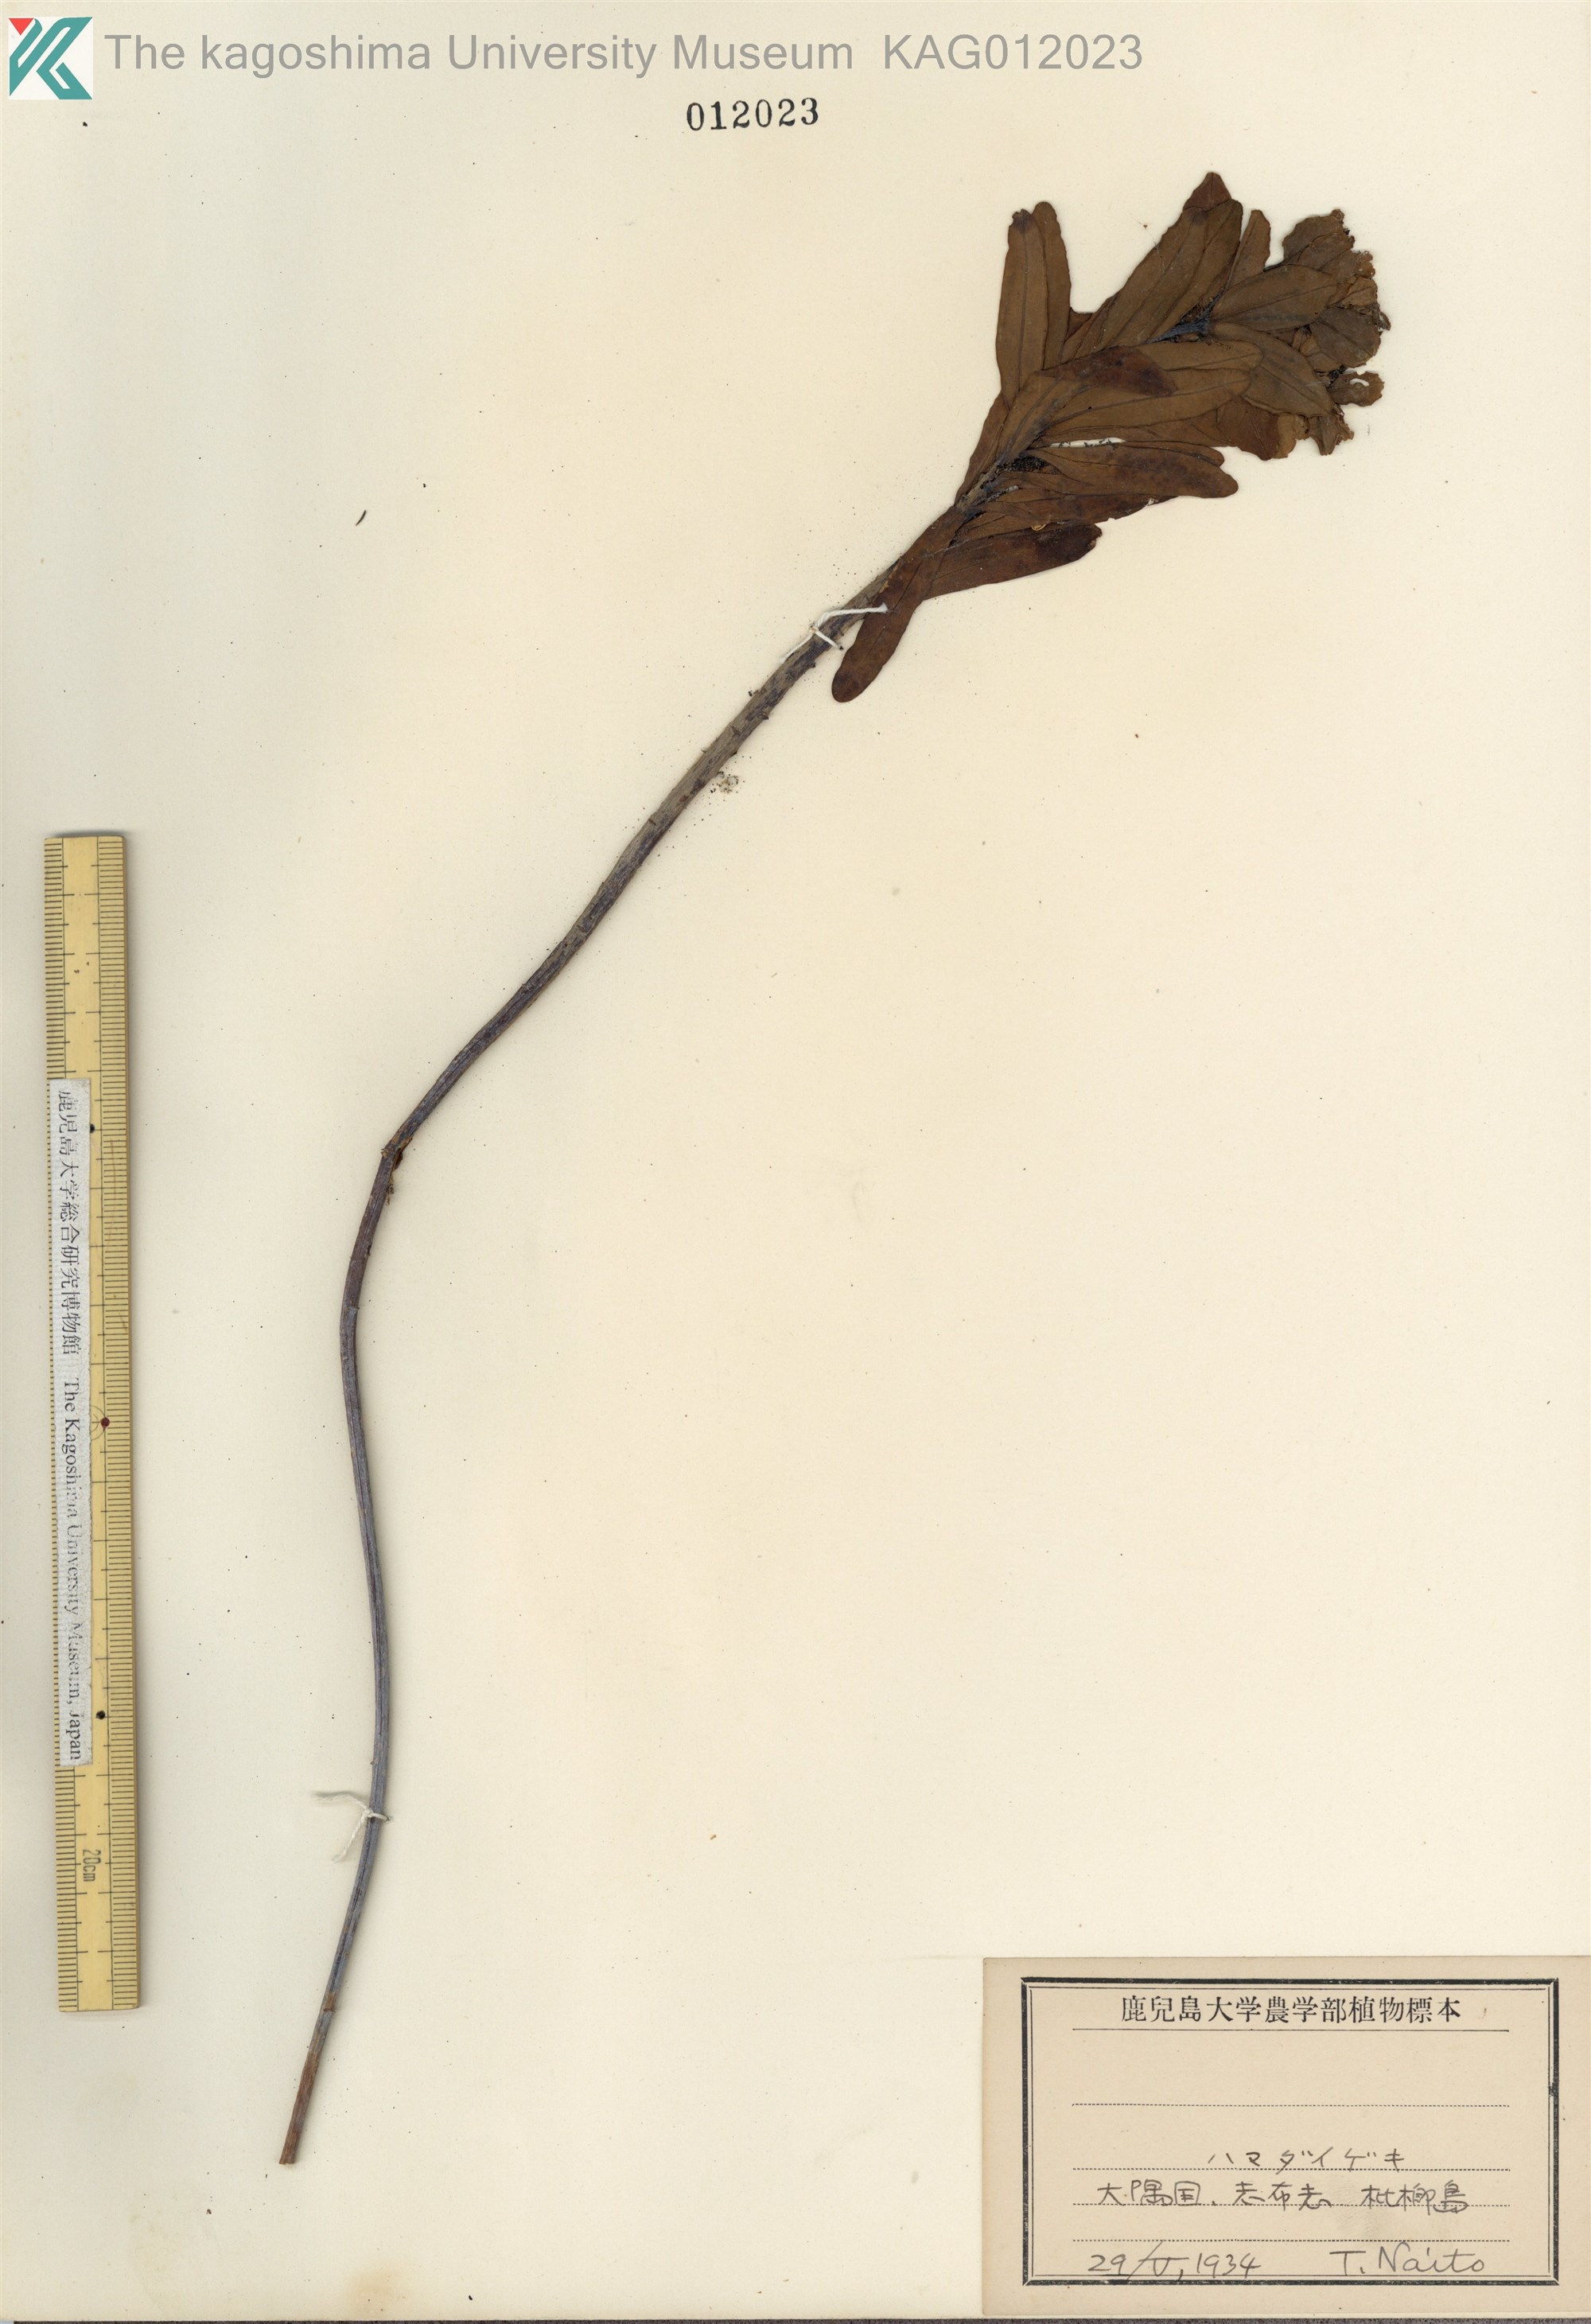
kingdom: Plantae
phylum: Tracheophyta
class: Magnoliopsida
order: Malpighiales
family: Euphorbiaceae
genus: Euphorbia
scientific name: Euphorbia jolkinii
